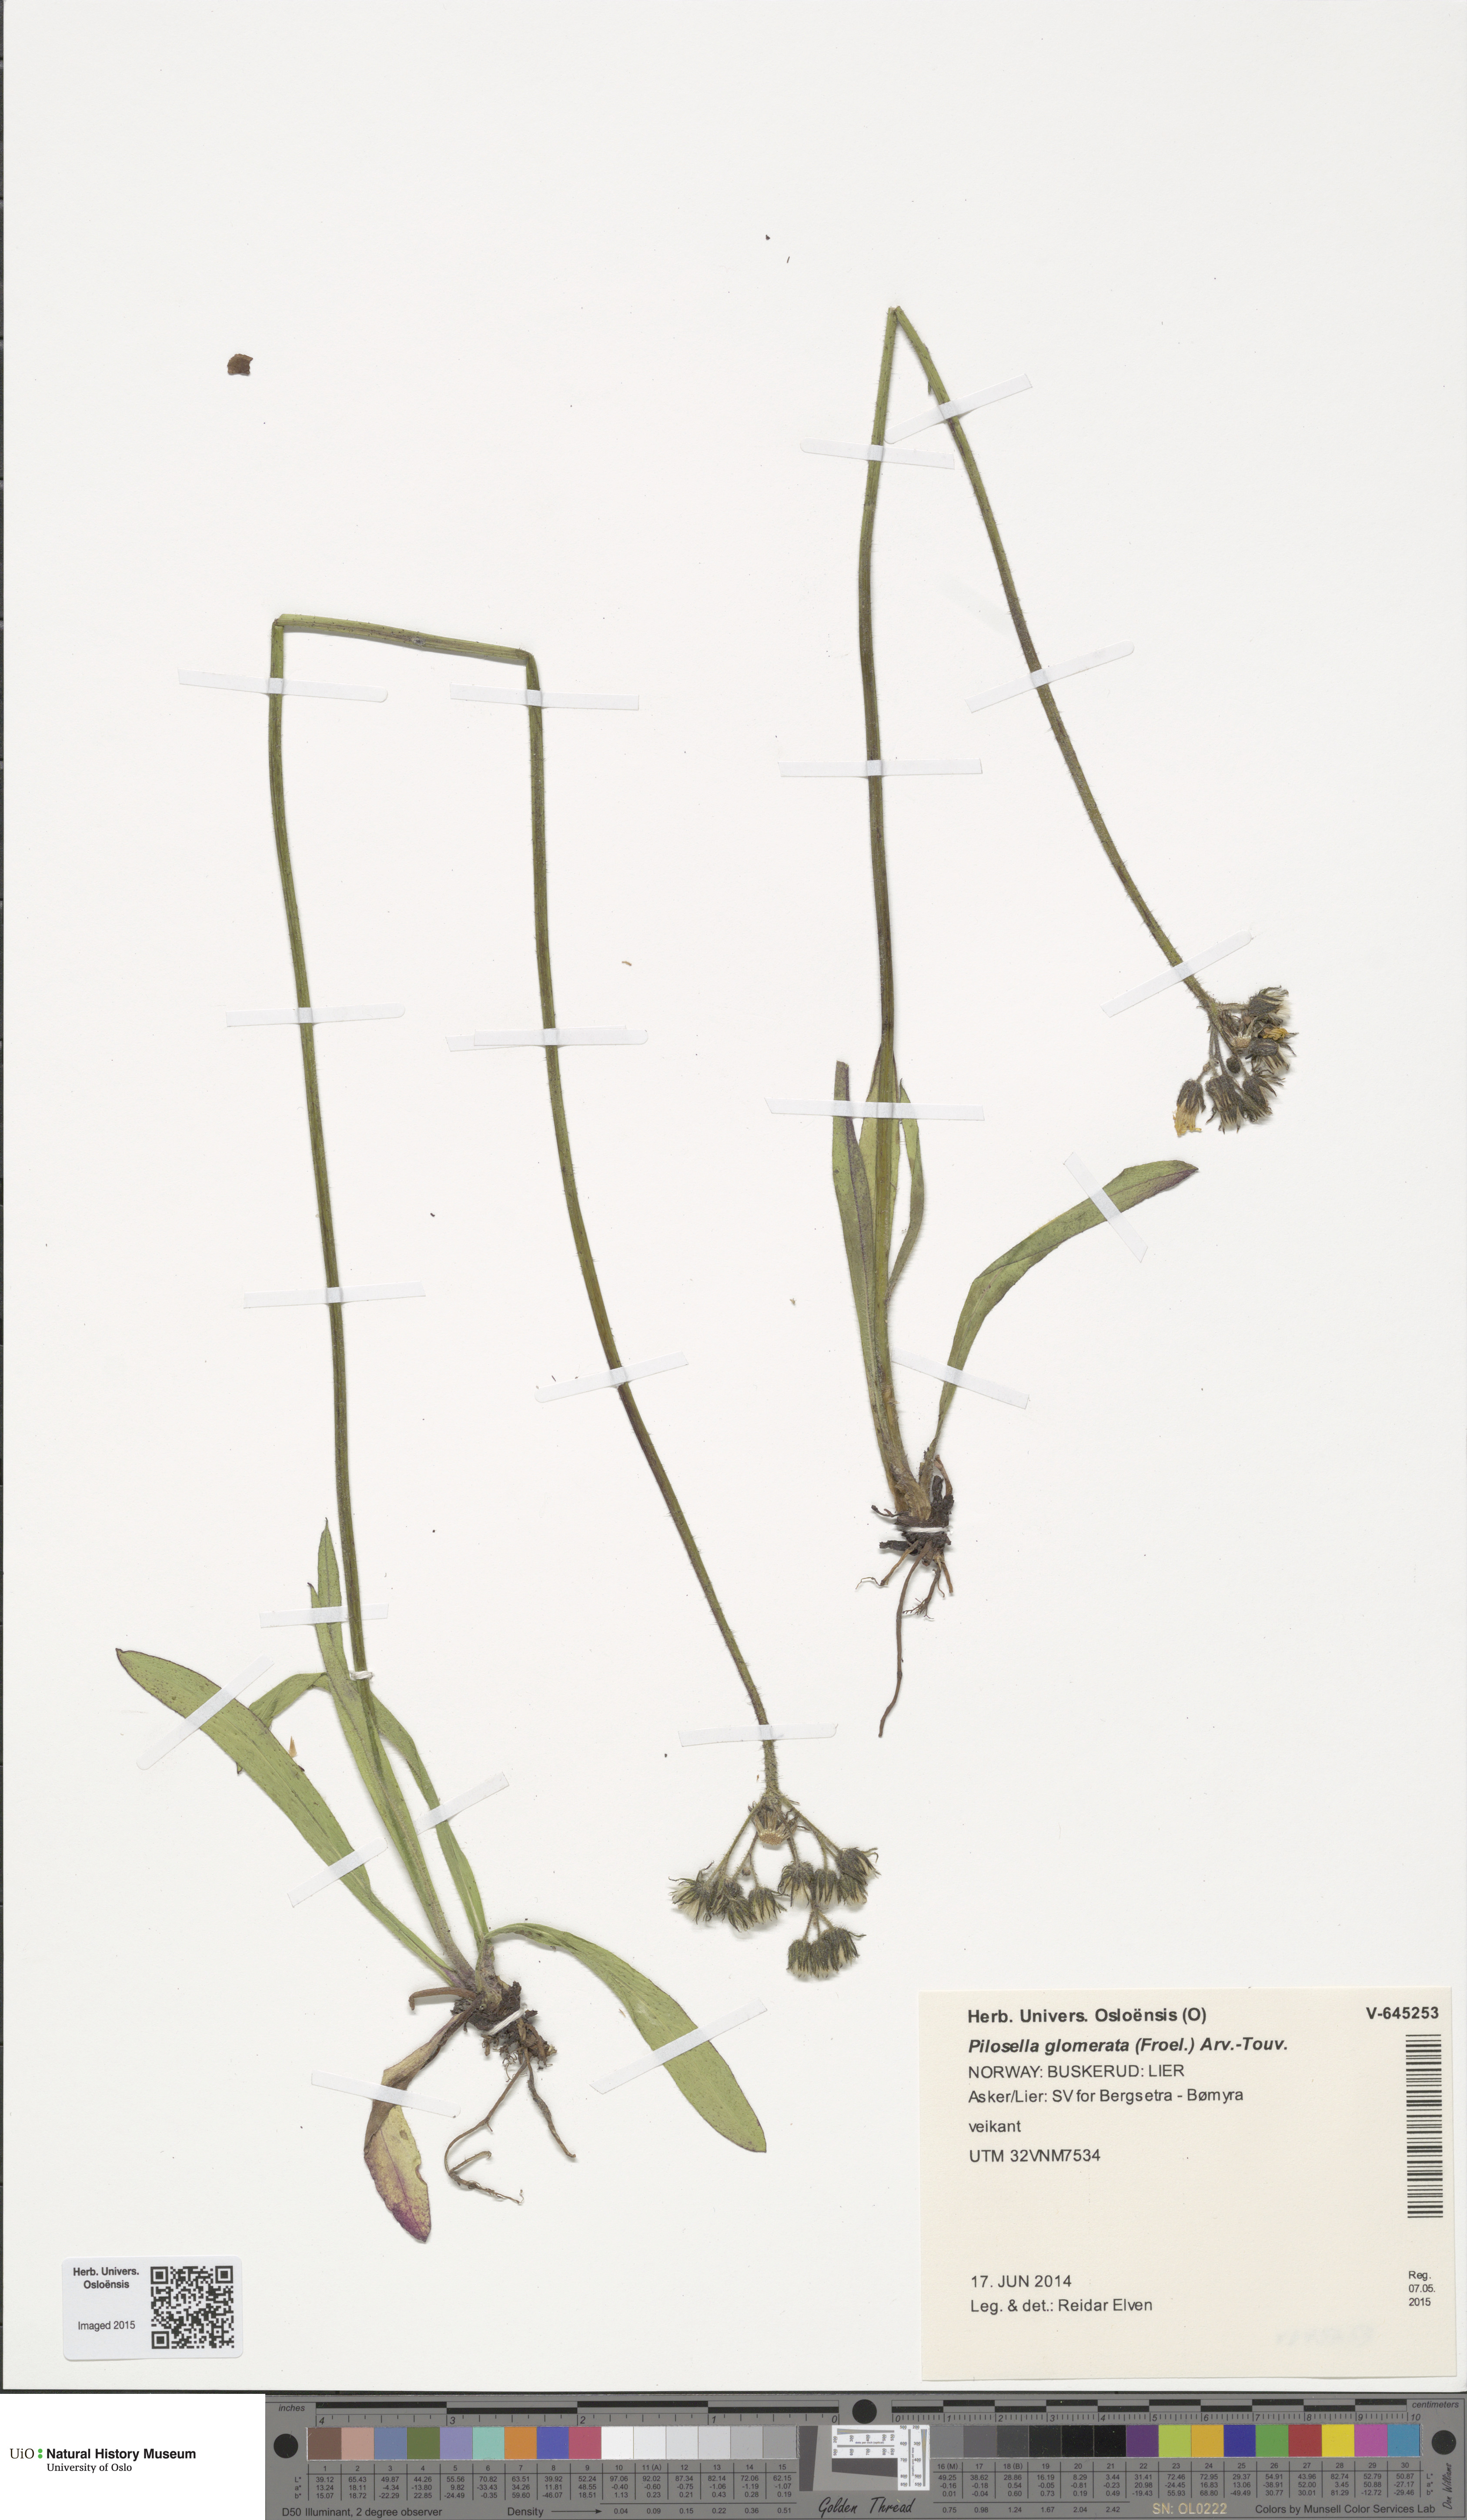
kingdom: Plantae
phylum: Tracheophyta
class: Magnoliopsida
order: Asterales
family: Asteraceae
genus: Pilosella
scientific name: Pilosella glomerata
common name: Queen devil hawkweed
